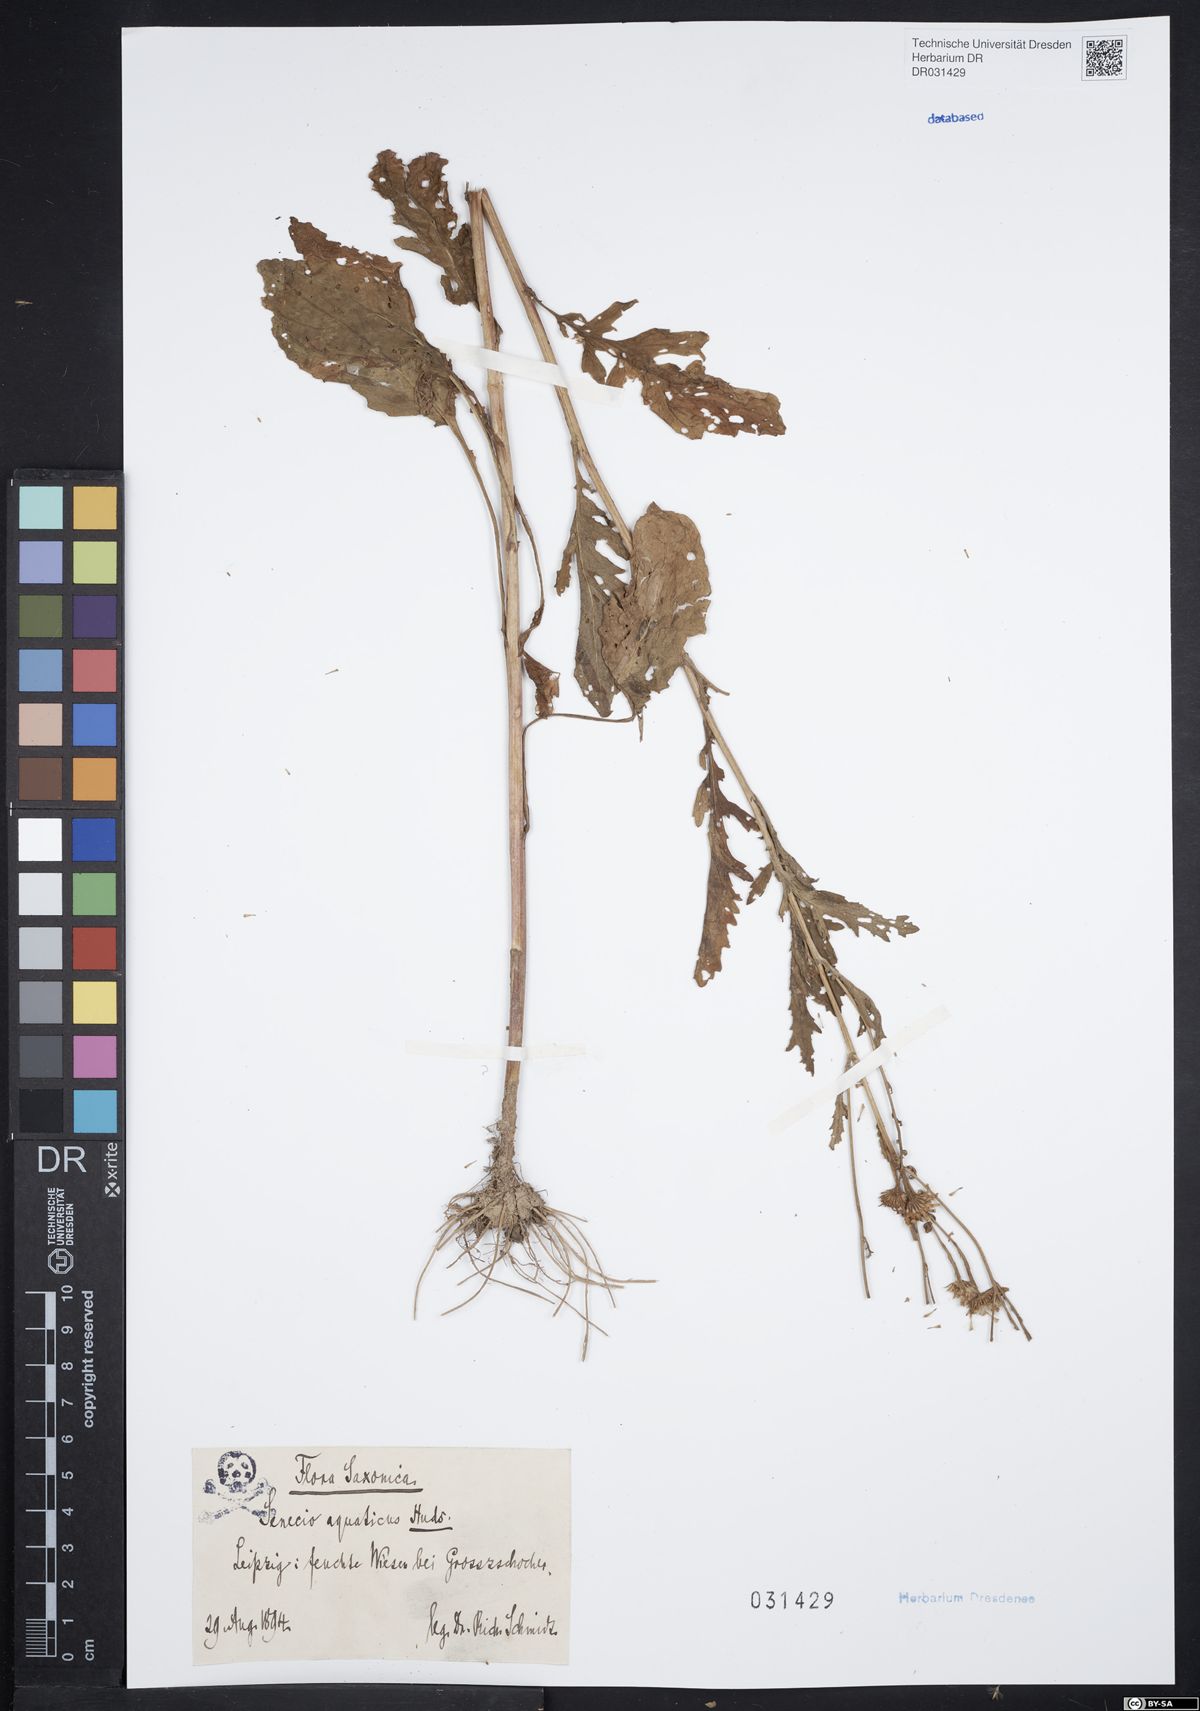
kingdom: Plantae
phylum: Tracheophyta
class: Magnoliopsida
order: Asterales
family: Asteraceae
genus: Jacobaea
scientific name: Jacobaea aquatica
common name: Water ragwort
